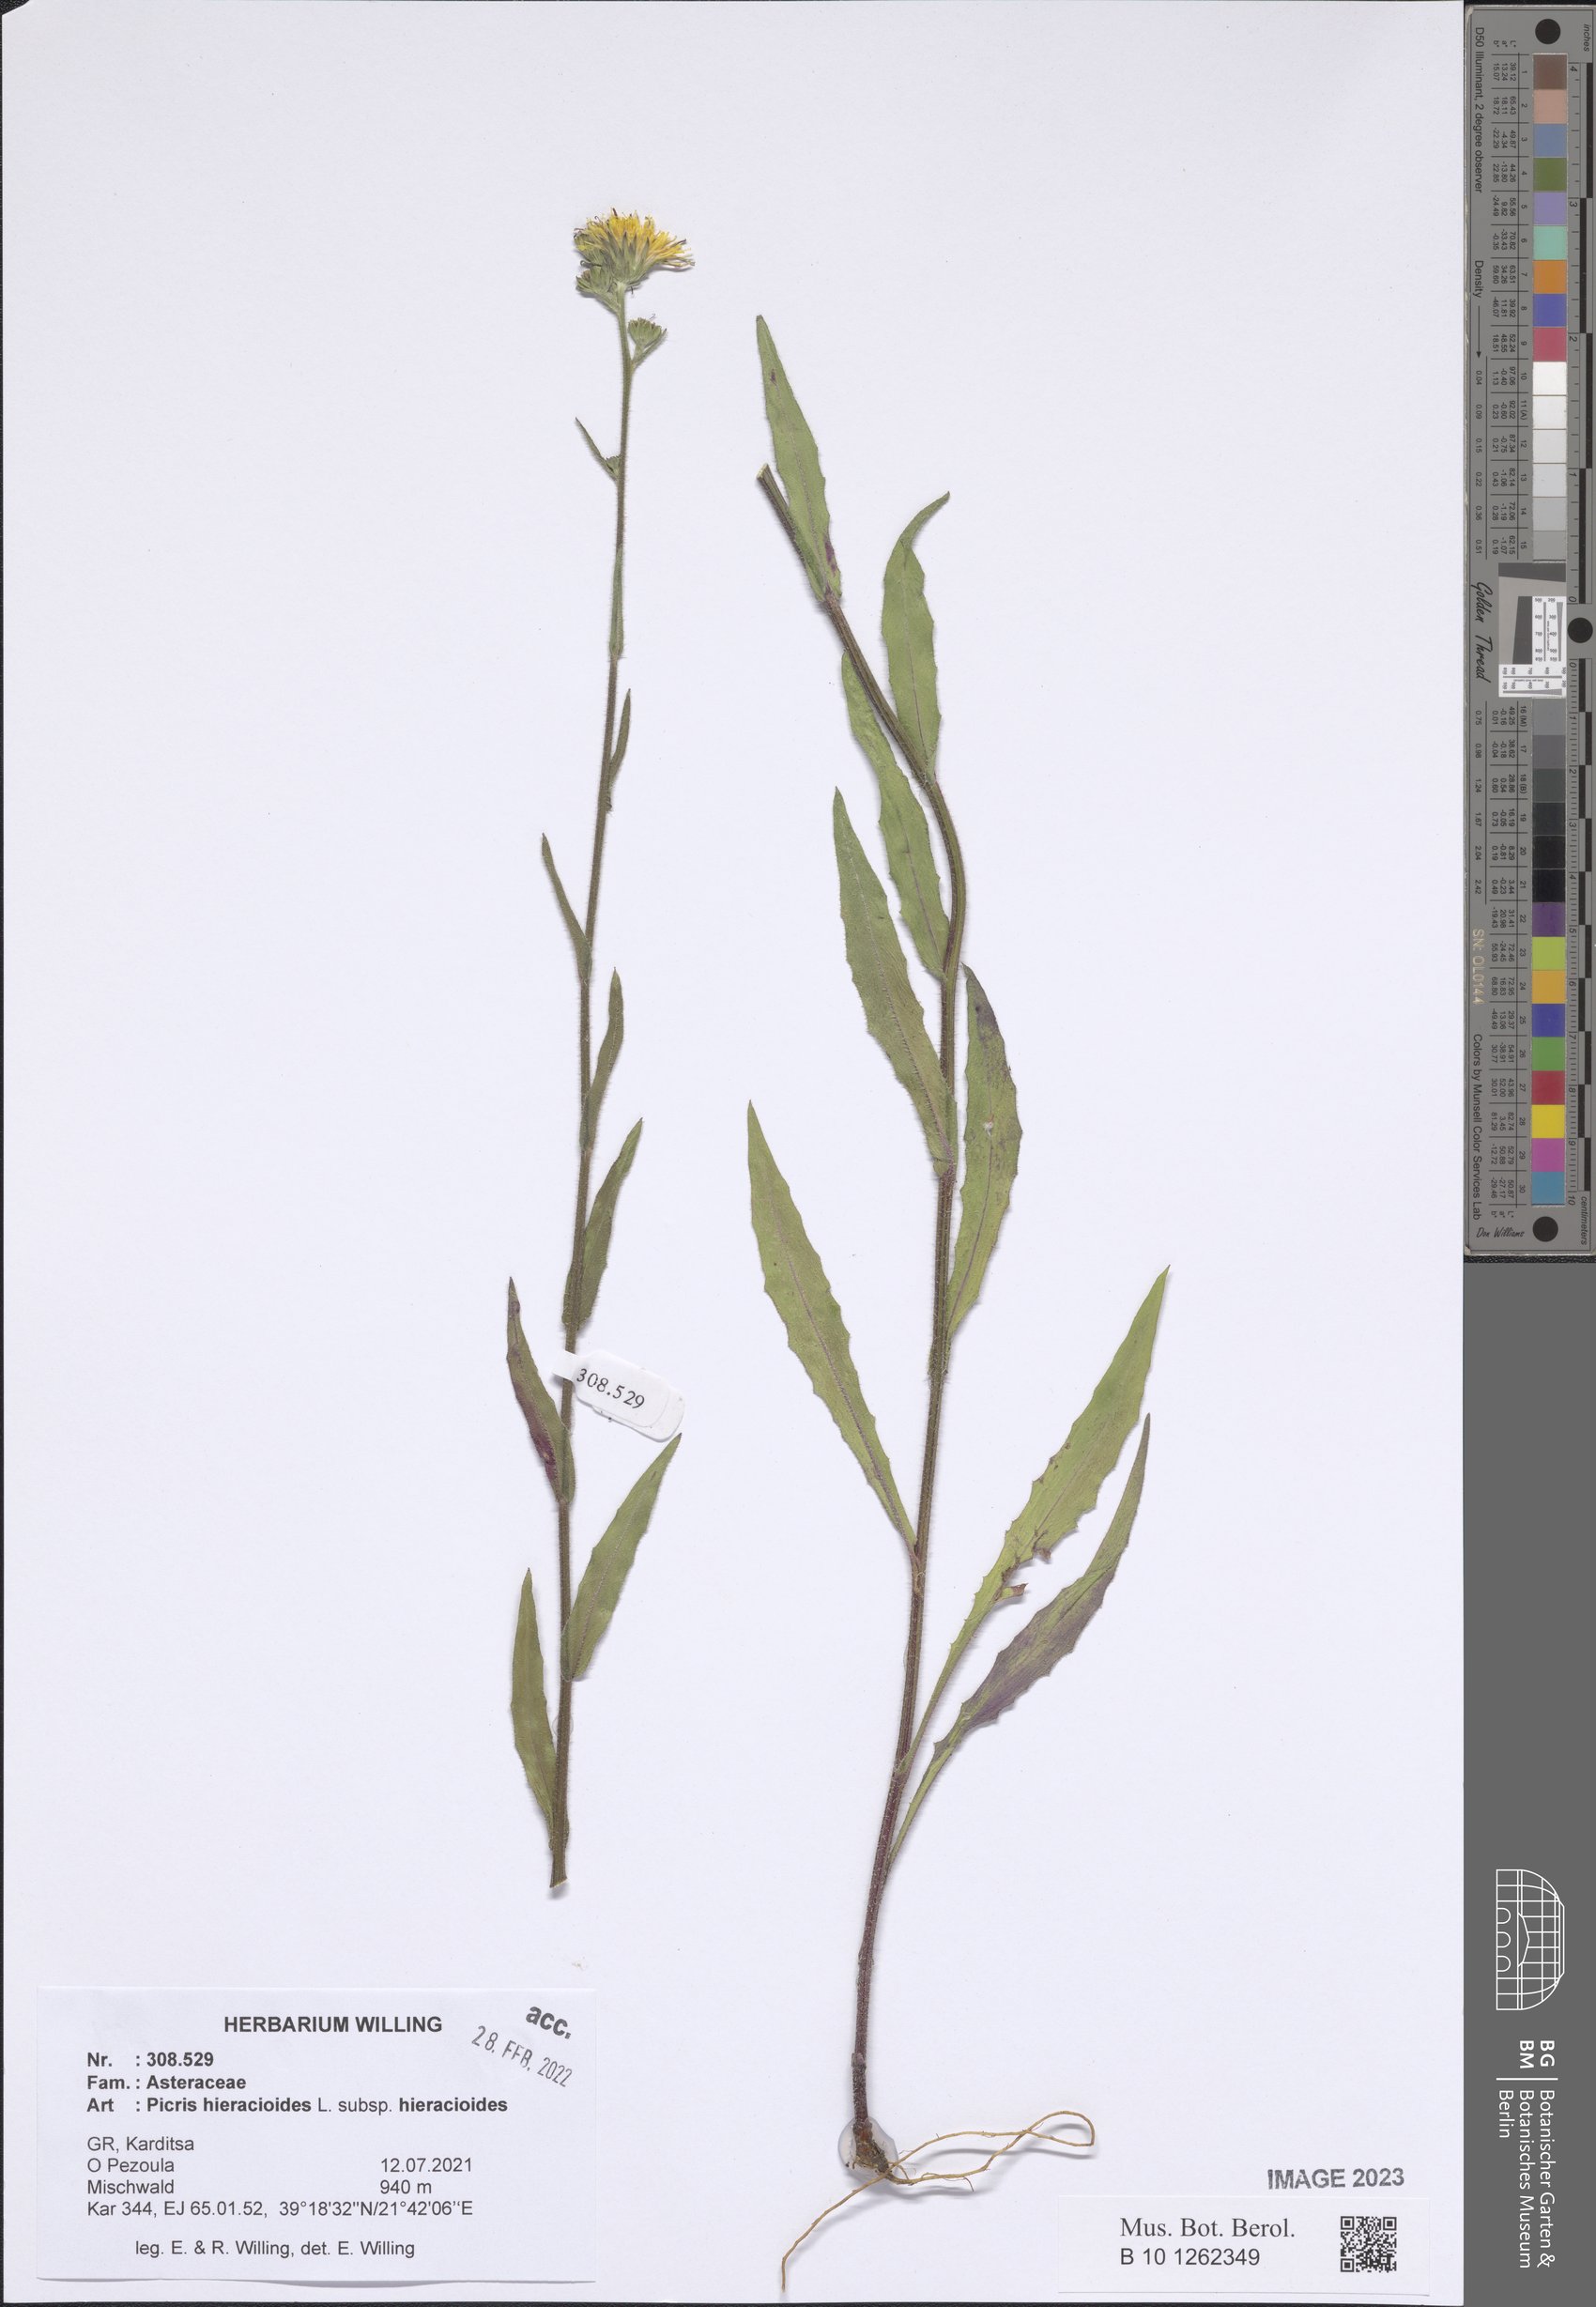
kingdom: Plantae
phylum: Tracheophyta
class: Magnoliopsida
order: Asterales
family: Asteraceae
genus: Picris
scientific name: Picris hieracioides
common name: Hawkweed oxtongue
